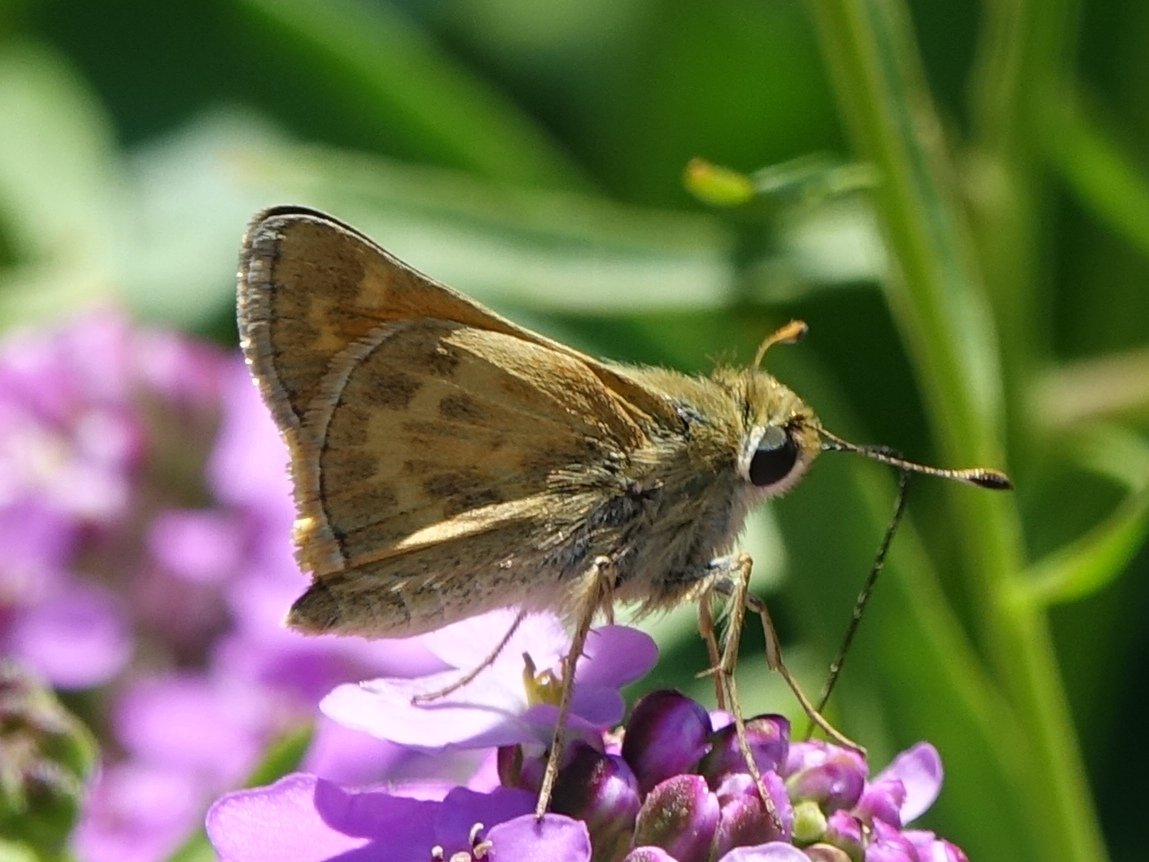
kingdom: Animalia
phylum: Arthropoda
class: Insecta
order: Lepidoptera
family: Hesperiidae
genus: Polites
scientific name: Polites sabuleti
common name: Sandhill Skipper
